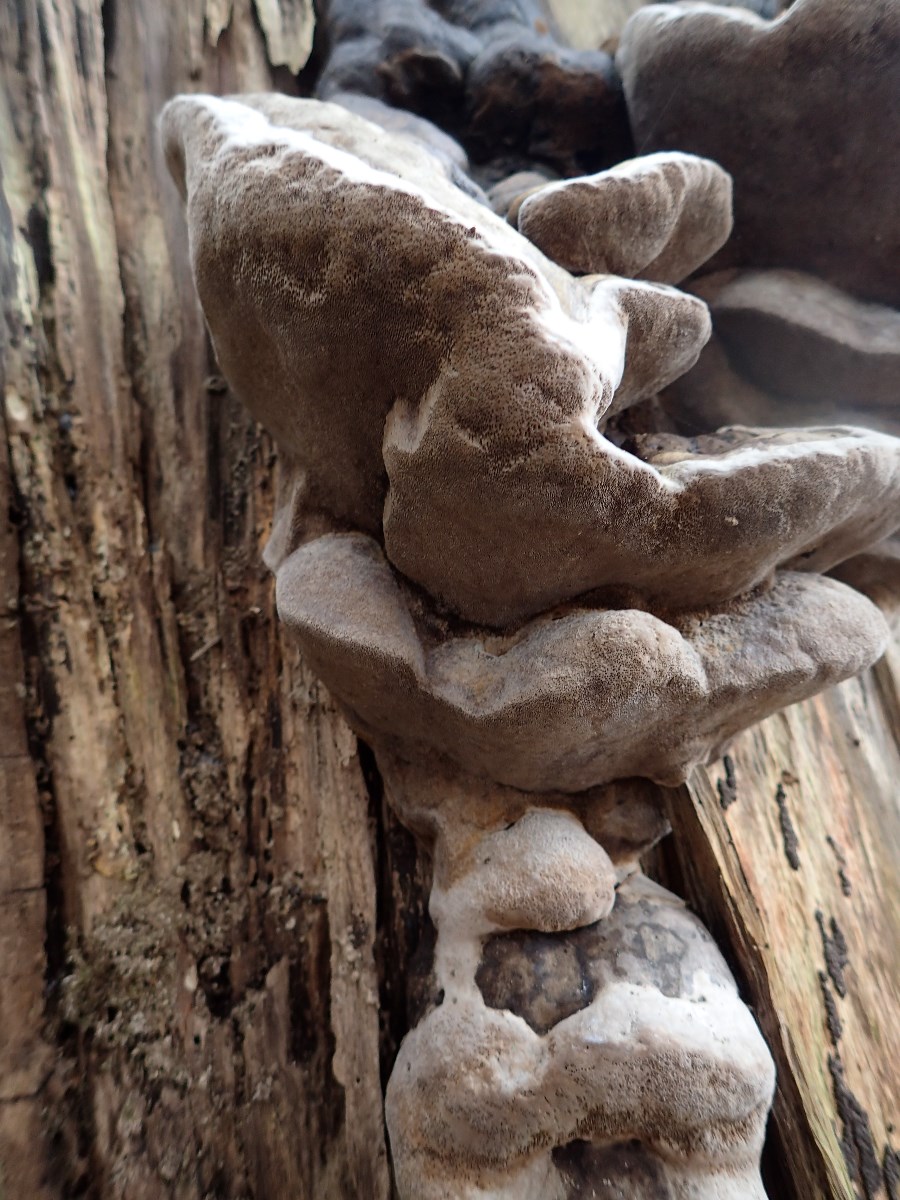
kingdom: Fungi
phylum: Basidiomycota
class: Agaricomycetes
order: Hymenochaetales
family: Hymenochaetaceae
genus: Phellinus
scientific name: Phellinus populicola
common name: poppel-ildporesvamp
